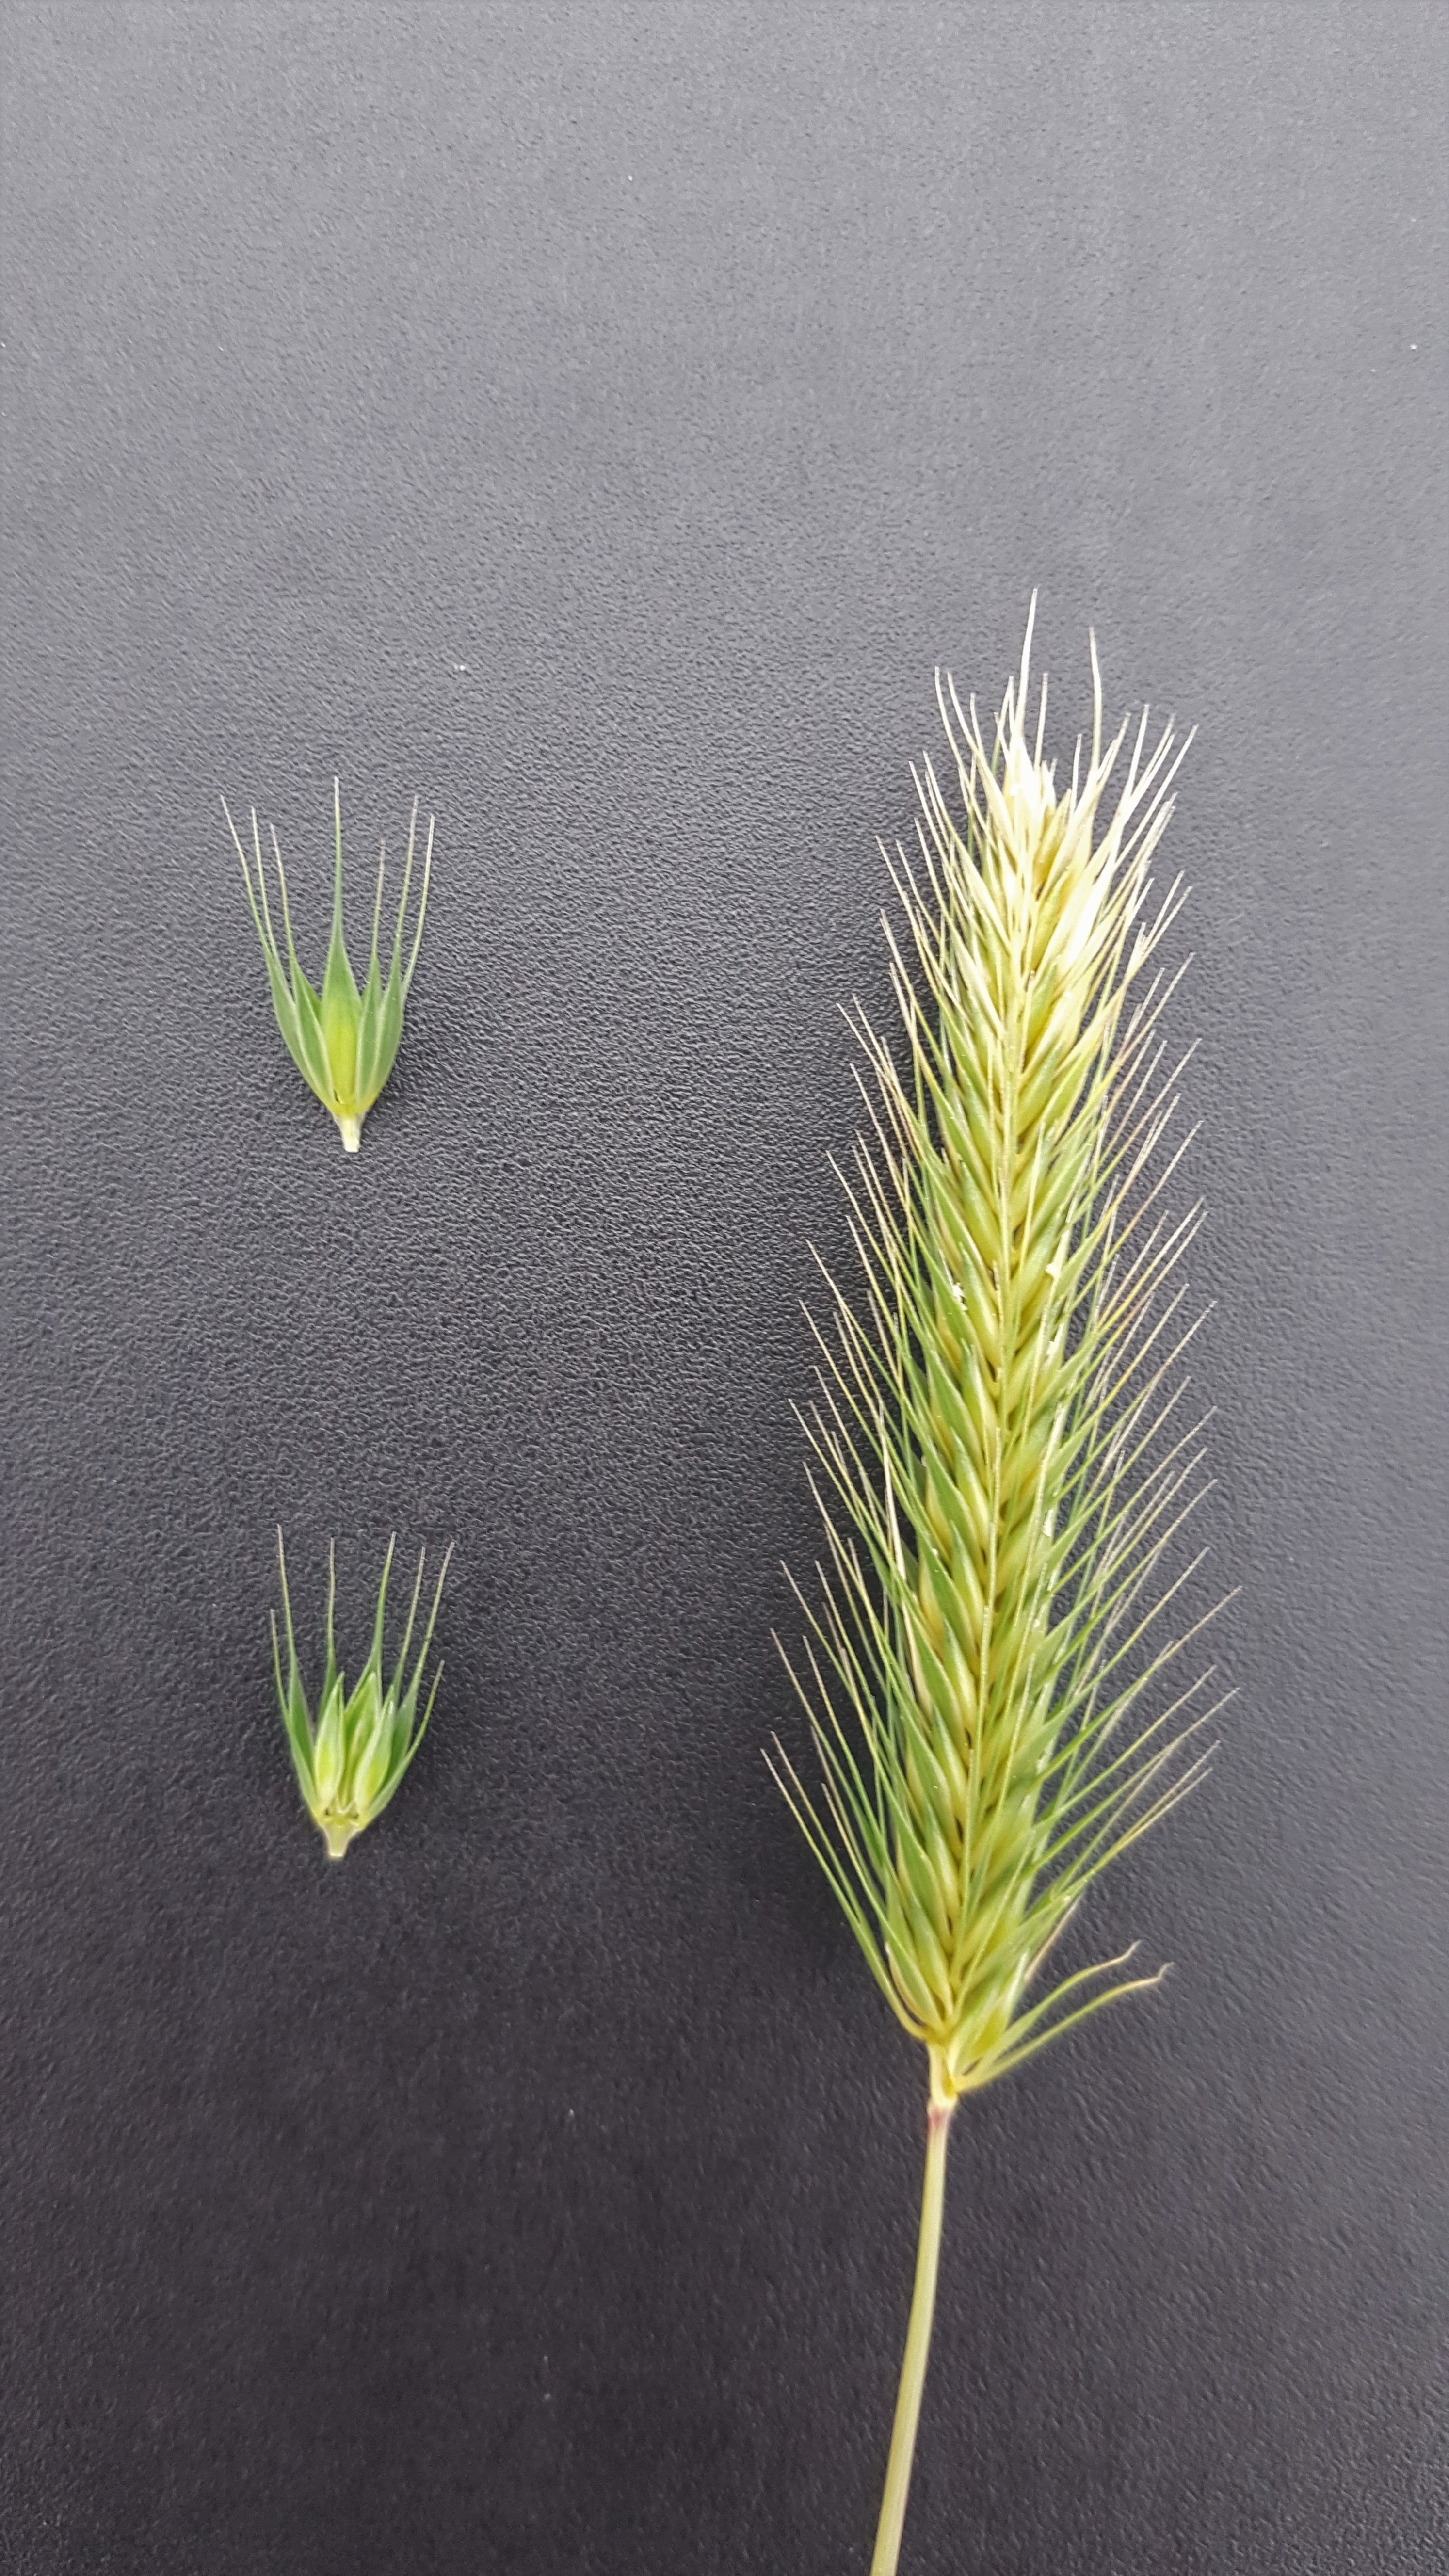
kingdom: Plantae
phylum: Tracheophyta
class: Liliopsida
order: Poales
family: Poaceae
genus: Hordeum
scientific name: Hordeum pusillum
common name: Little barley
